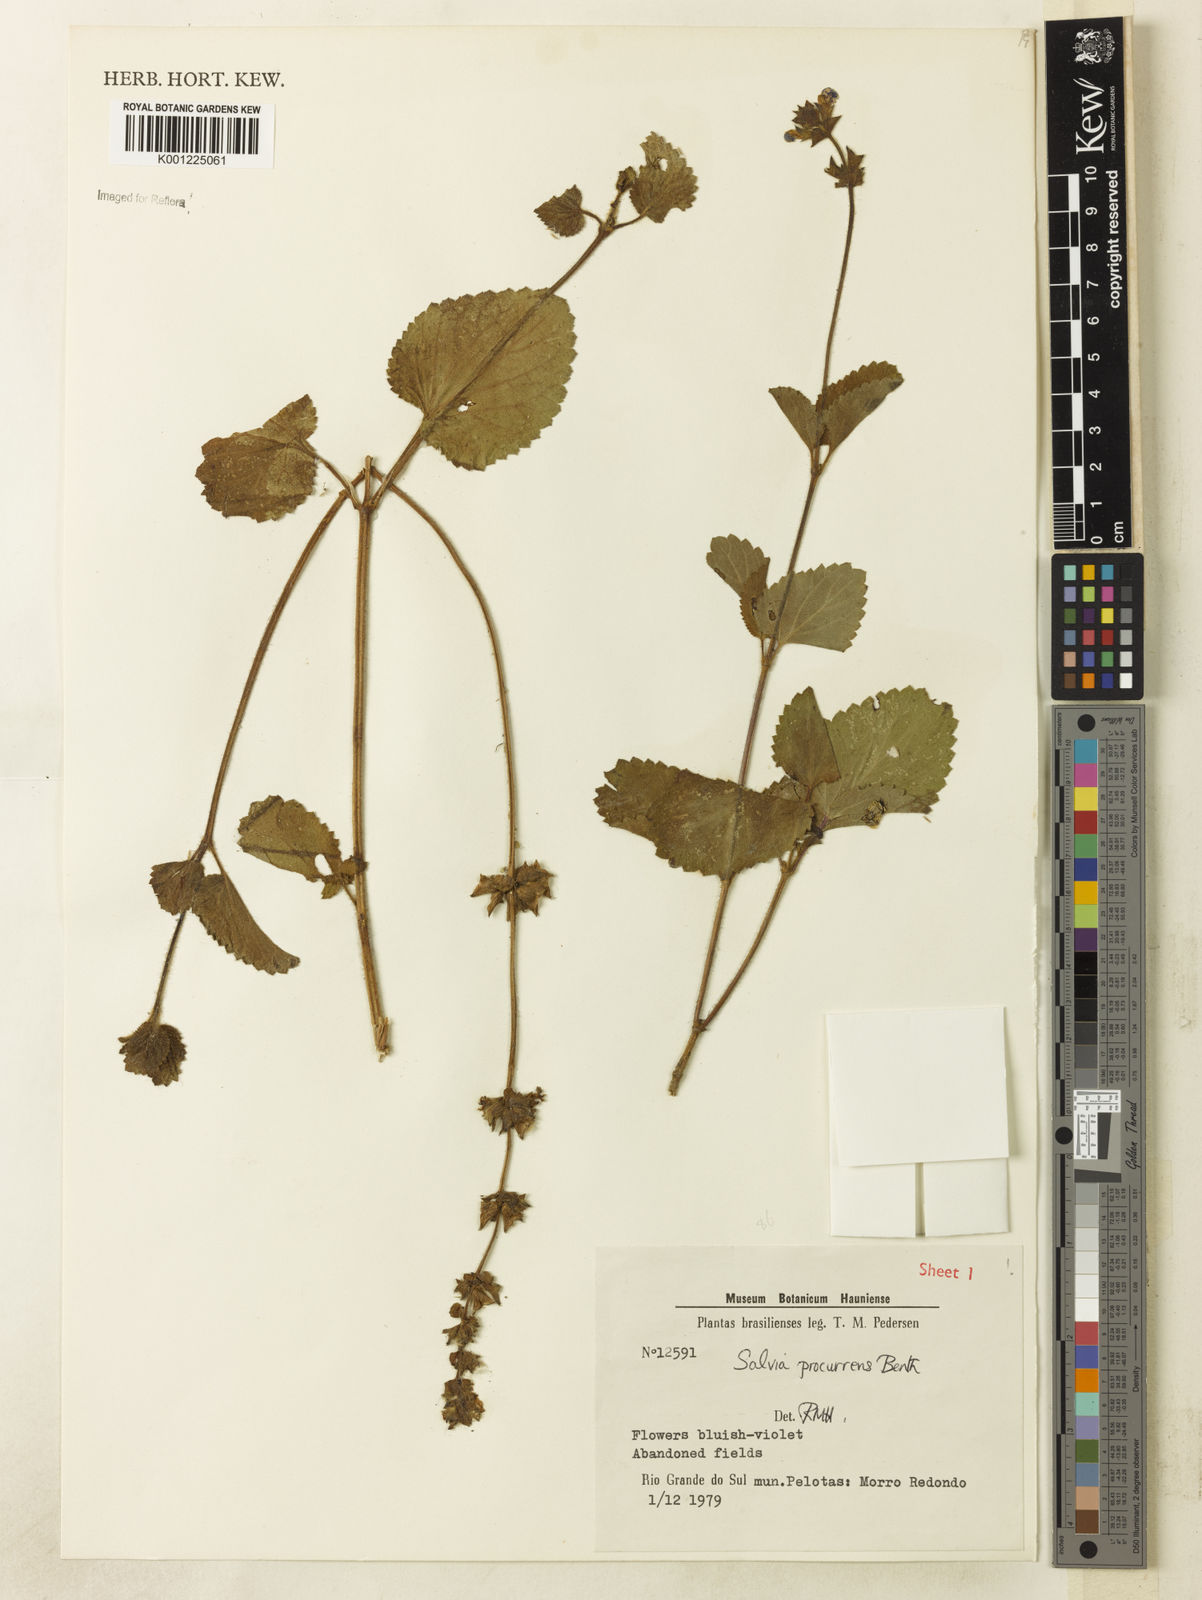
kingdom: Plantae
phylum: Tracheophyta
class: Magnoliopsida
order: Lamiales
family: Lamiaceae
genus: Salvia
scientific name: Salvia procurrens
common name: Blue creeper
